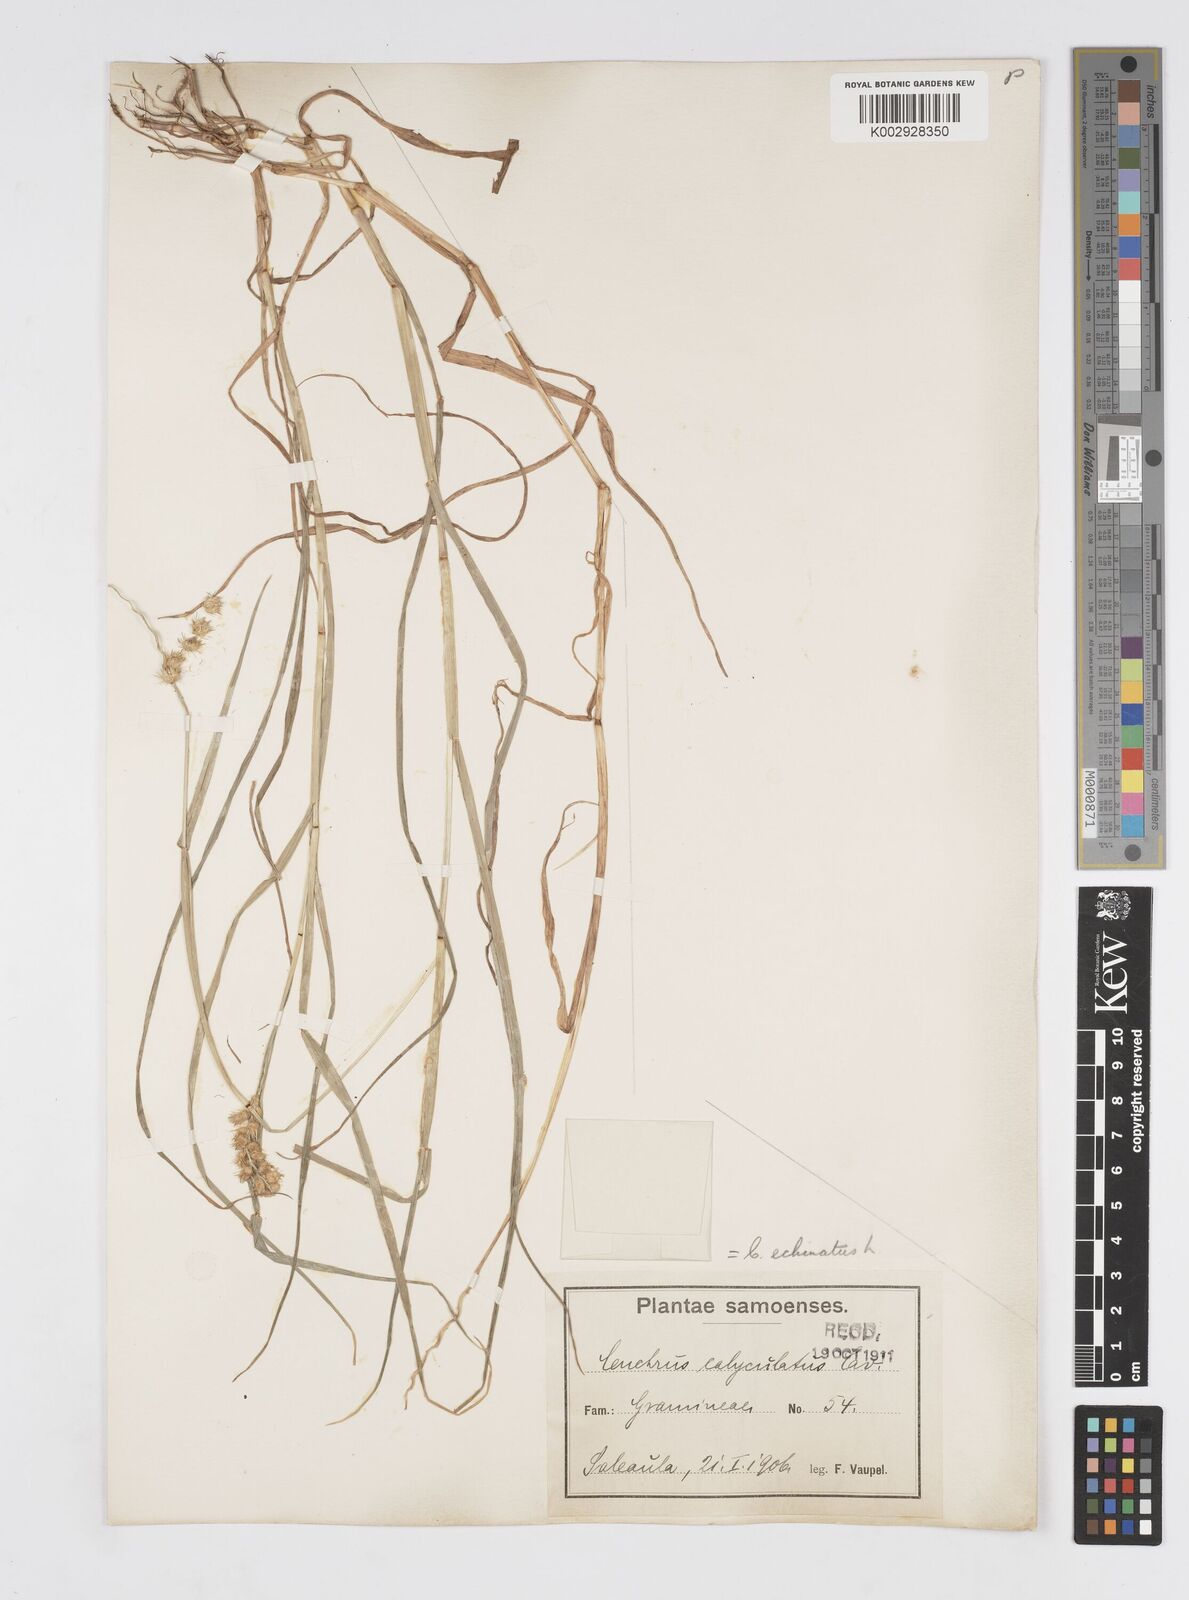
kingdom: Plantae
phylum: Tracheophyta
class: Liliopsida
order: Poales
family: Poaceae
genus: Cenchrus
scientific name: Cenchrus echinatus
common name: Southern sandbur
